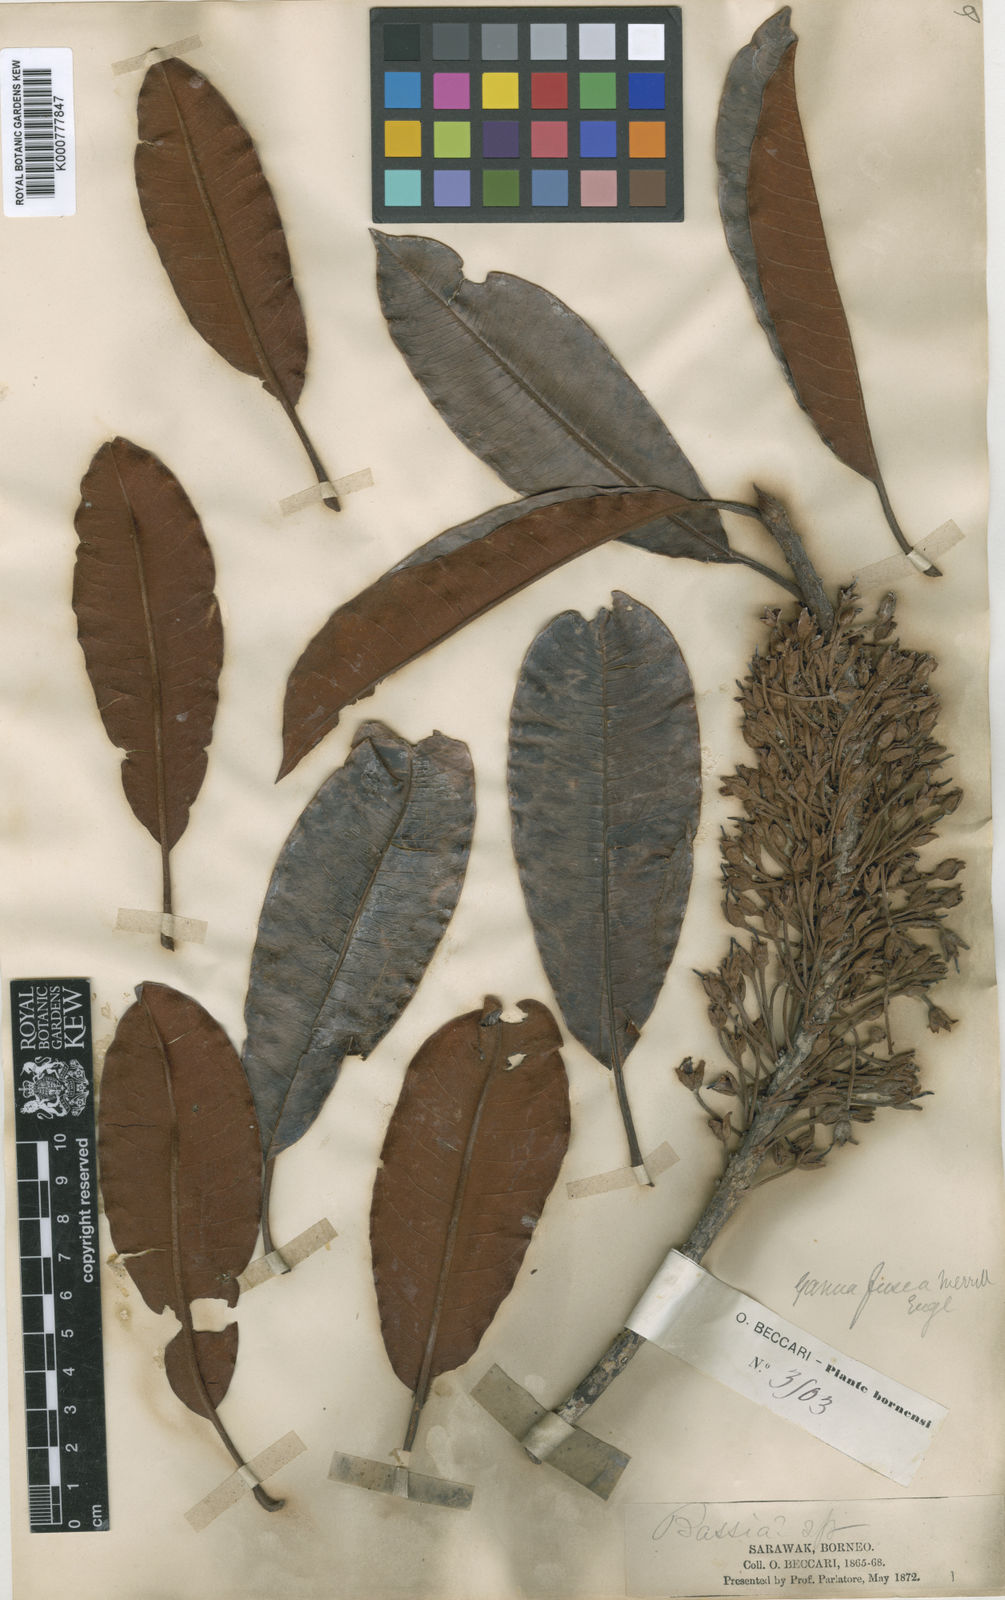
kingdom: Plantae
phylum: Tracheophyta
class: Magnoliopsida
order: Ericales
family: Sapotaceae
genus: Madhuca
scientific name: Madhuca fusca
